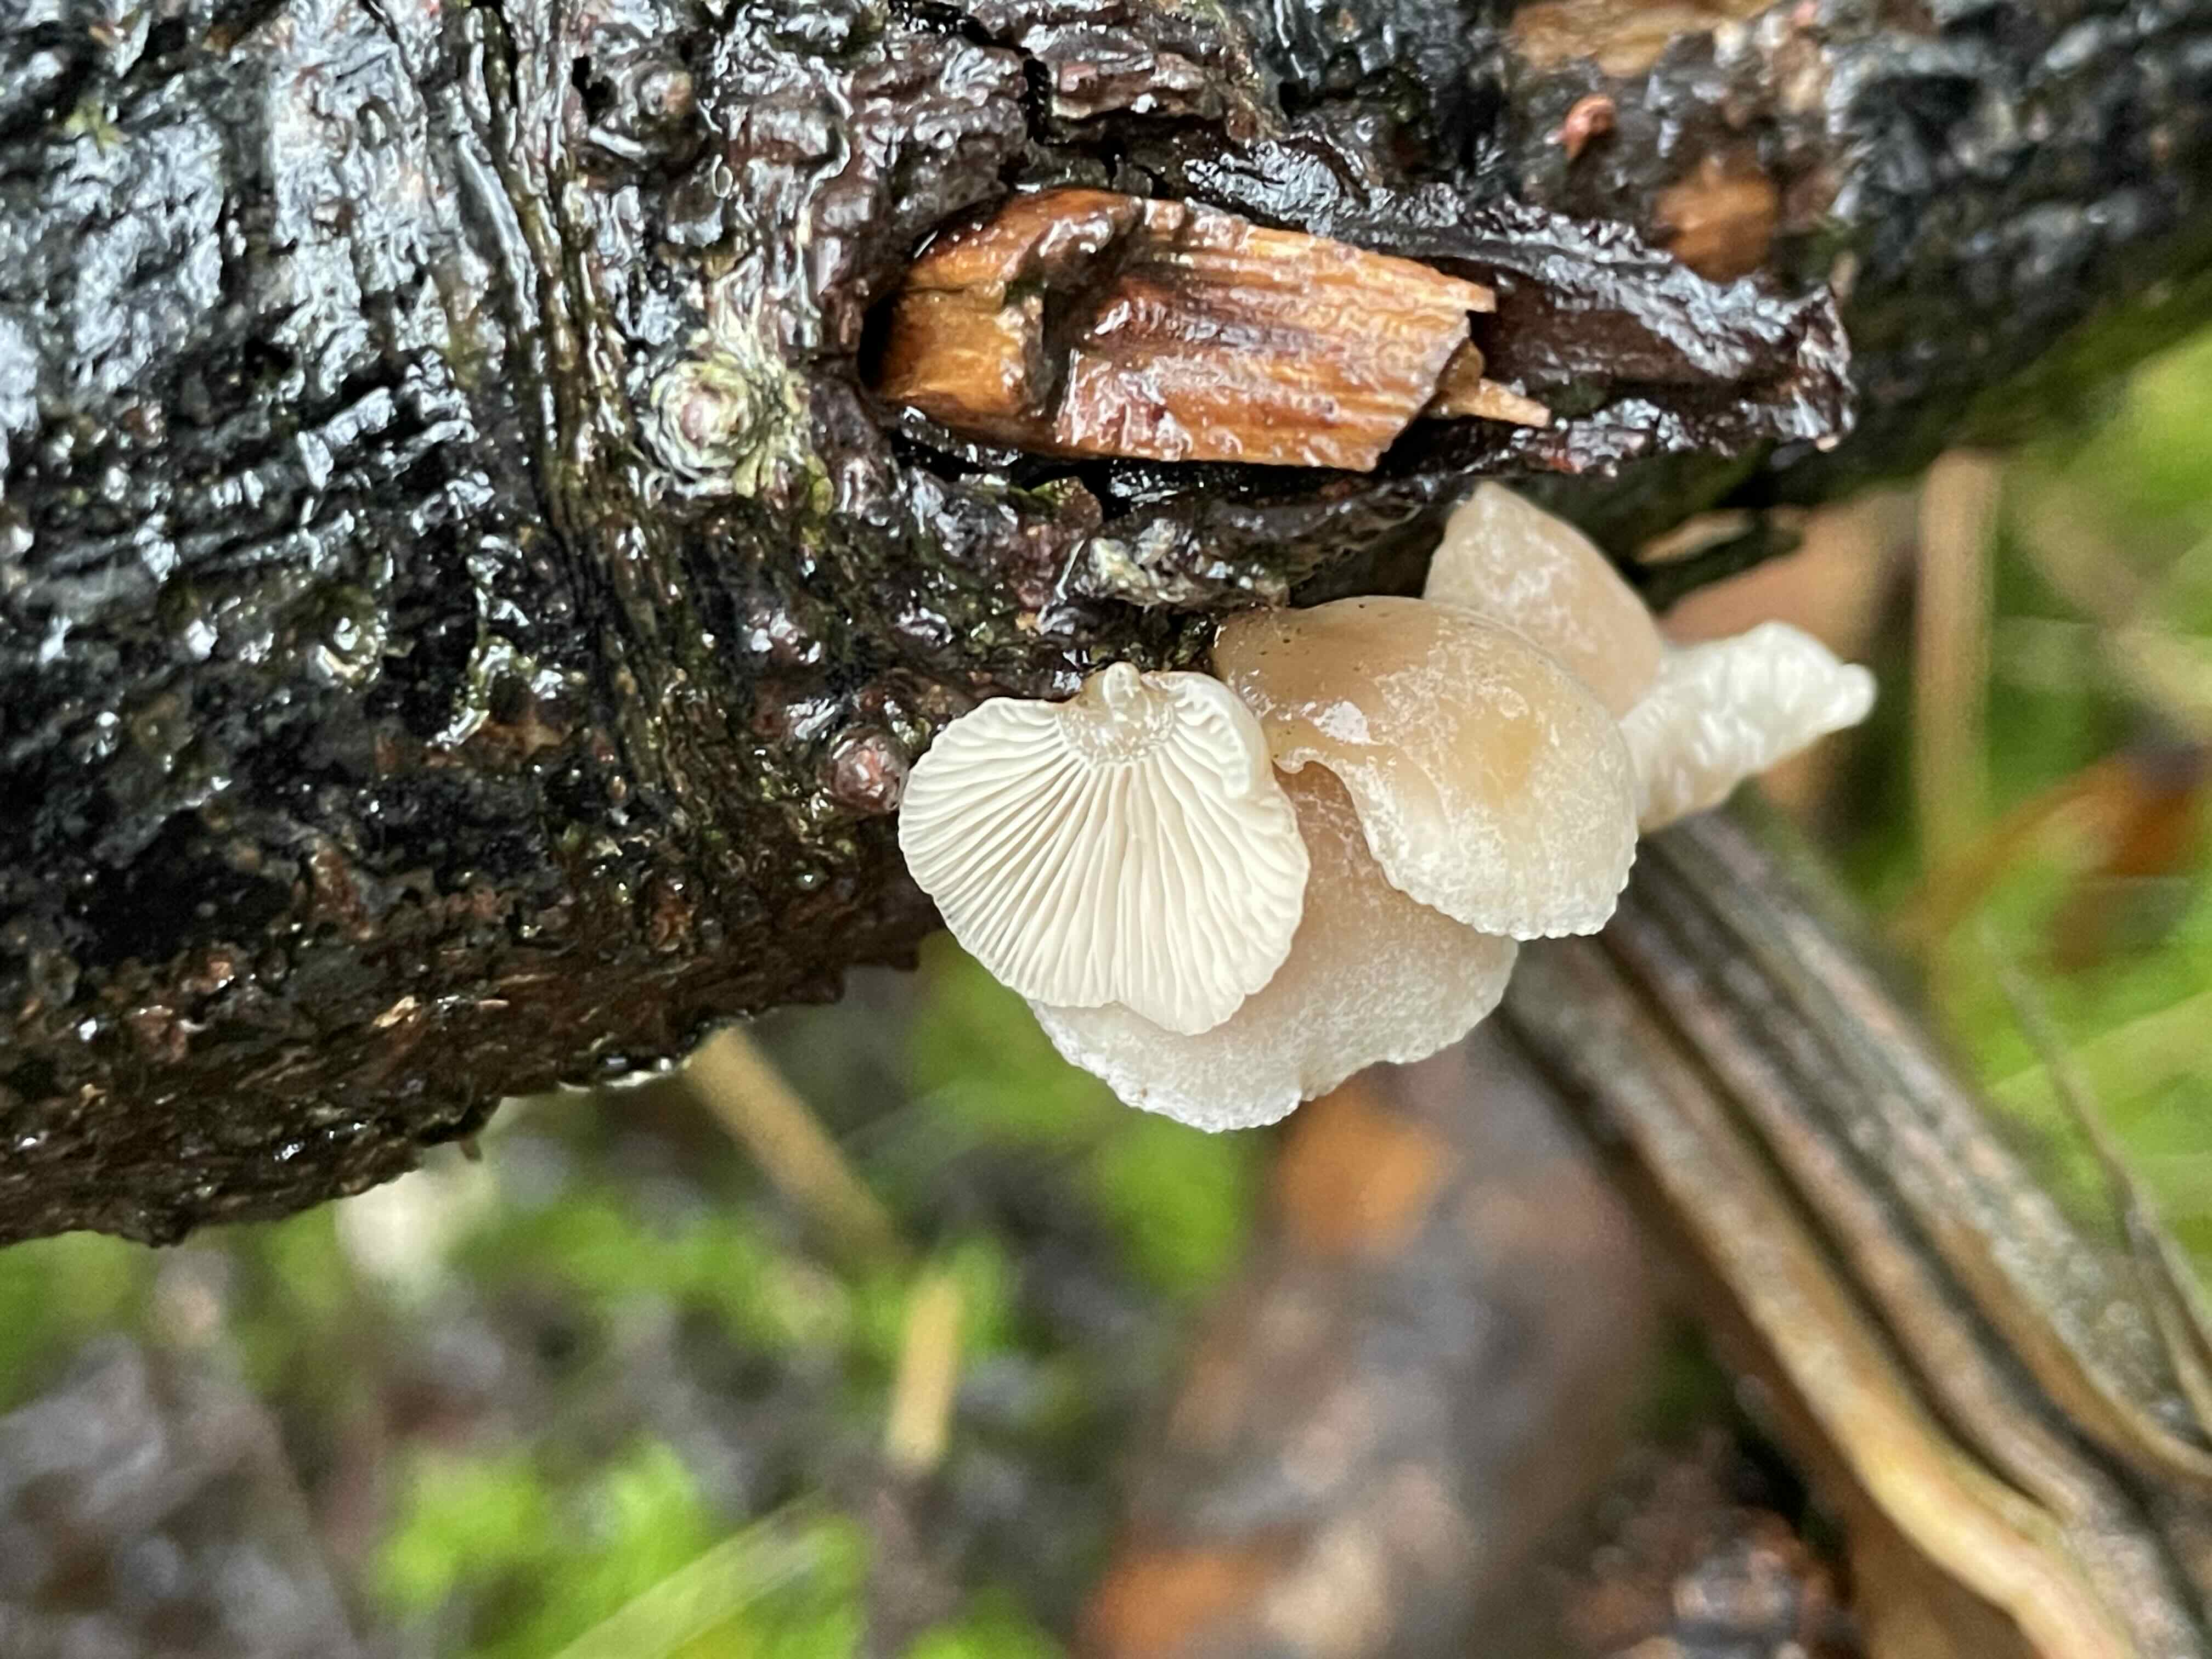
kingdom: Fungi
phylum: Basidiomycota
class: Agaricomycetes
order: Agaricales
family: Mycenaceae
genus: Panellus
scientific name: Panellus mitis
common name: mild epaulethat
